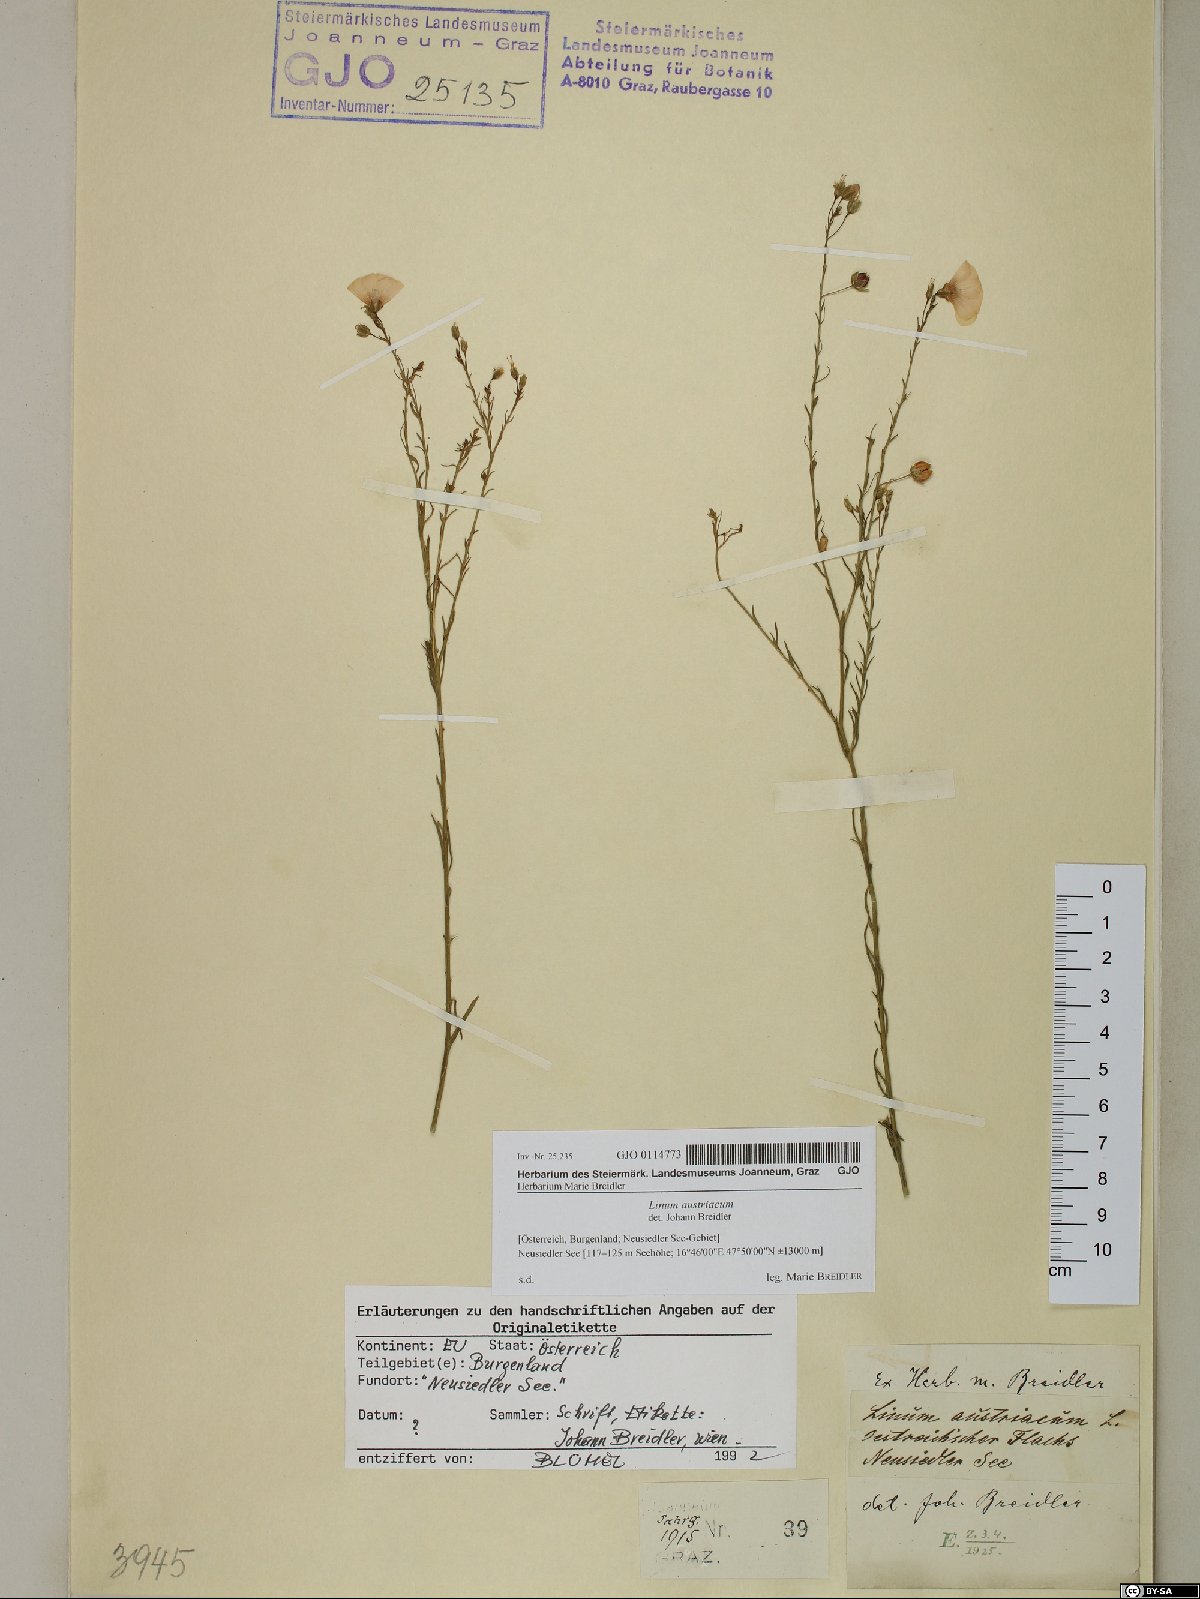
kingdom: Plantae
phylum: Tracheophyta
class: Magnoliopsida
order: Malpighiales
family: Linaceae
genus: Linum
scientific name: Linum austriacum
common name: Austrian flax
